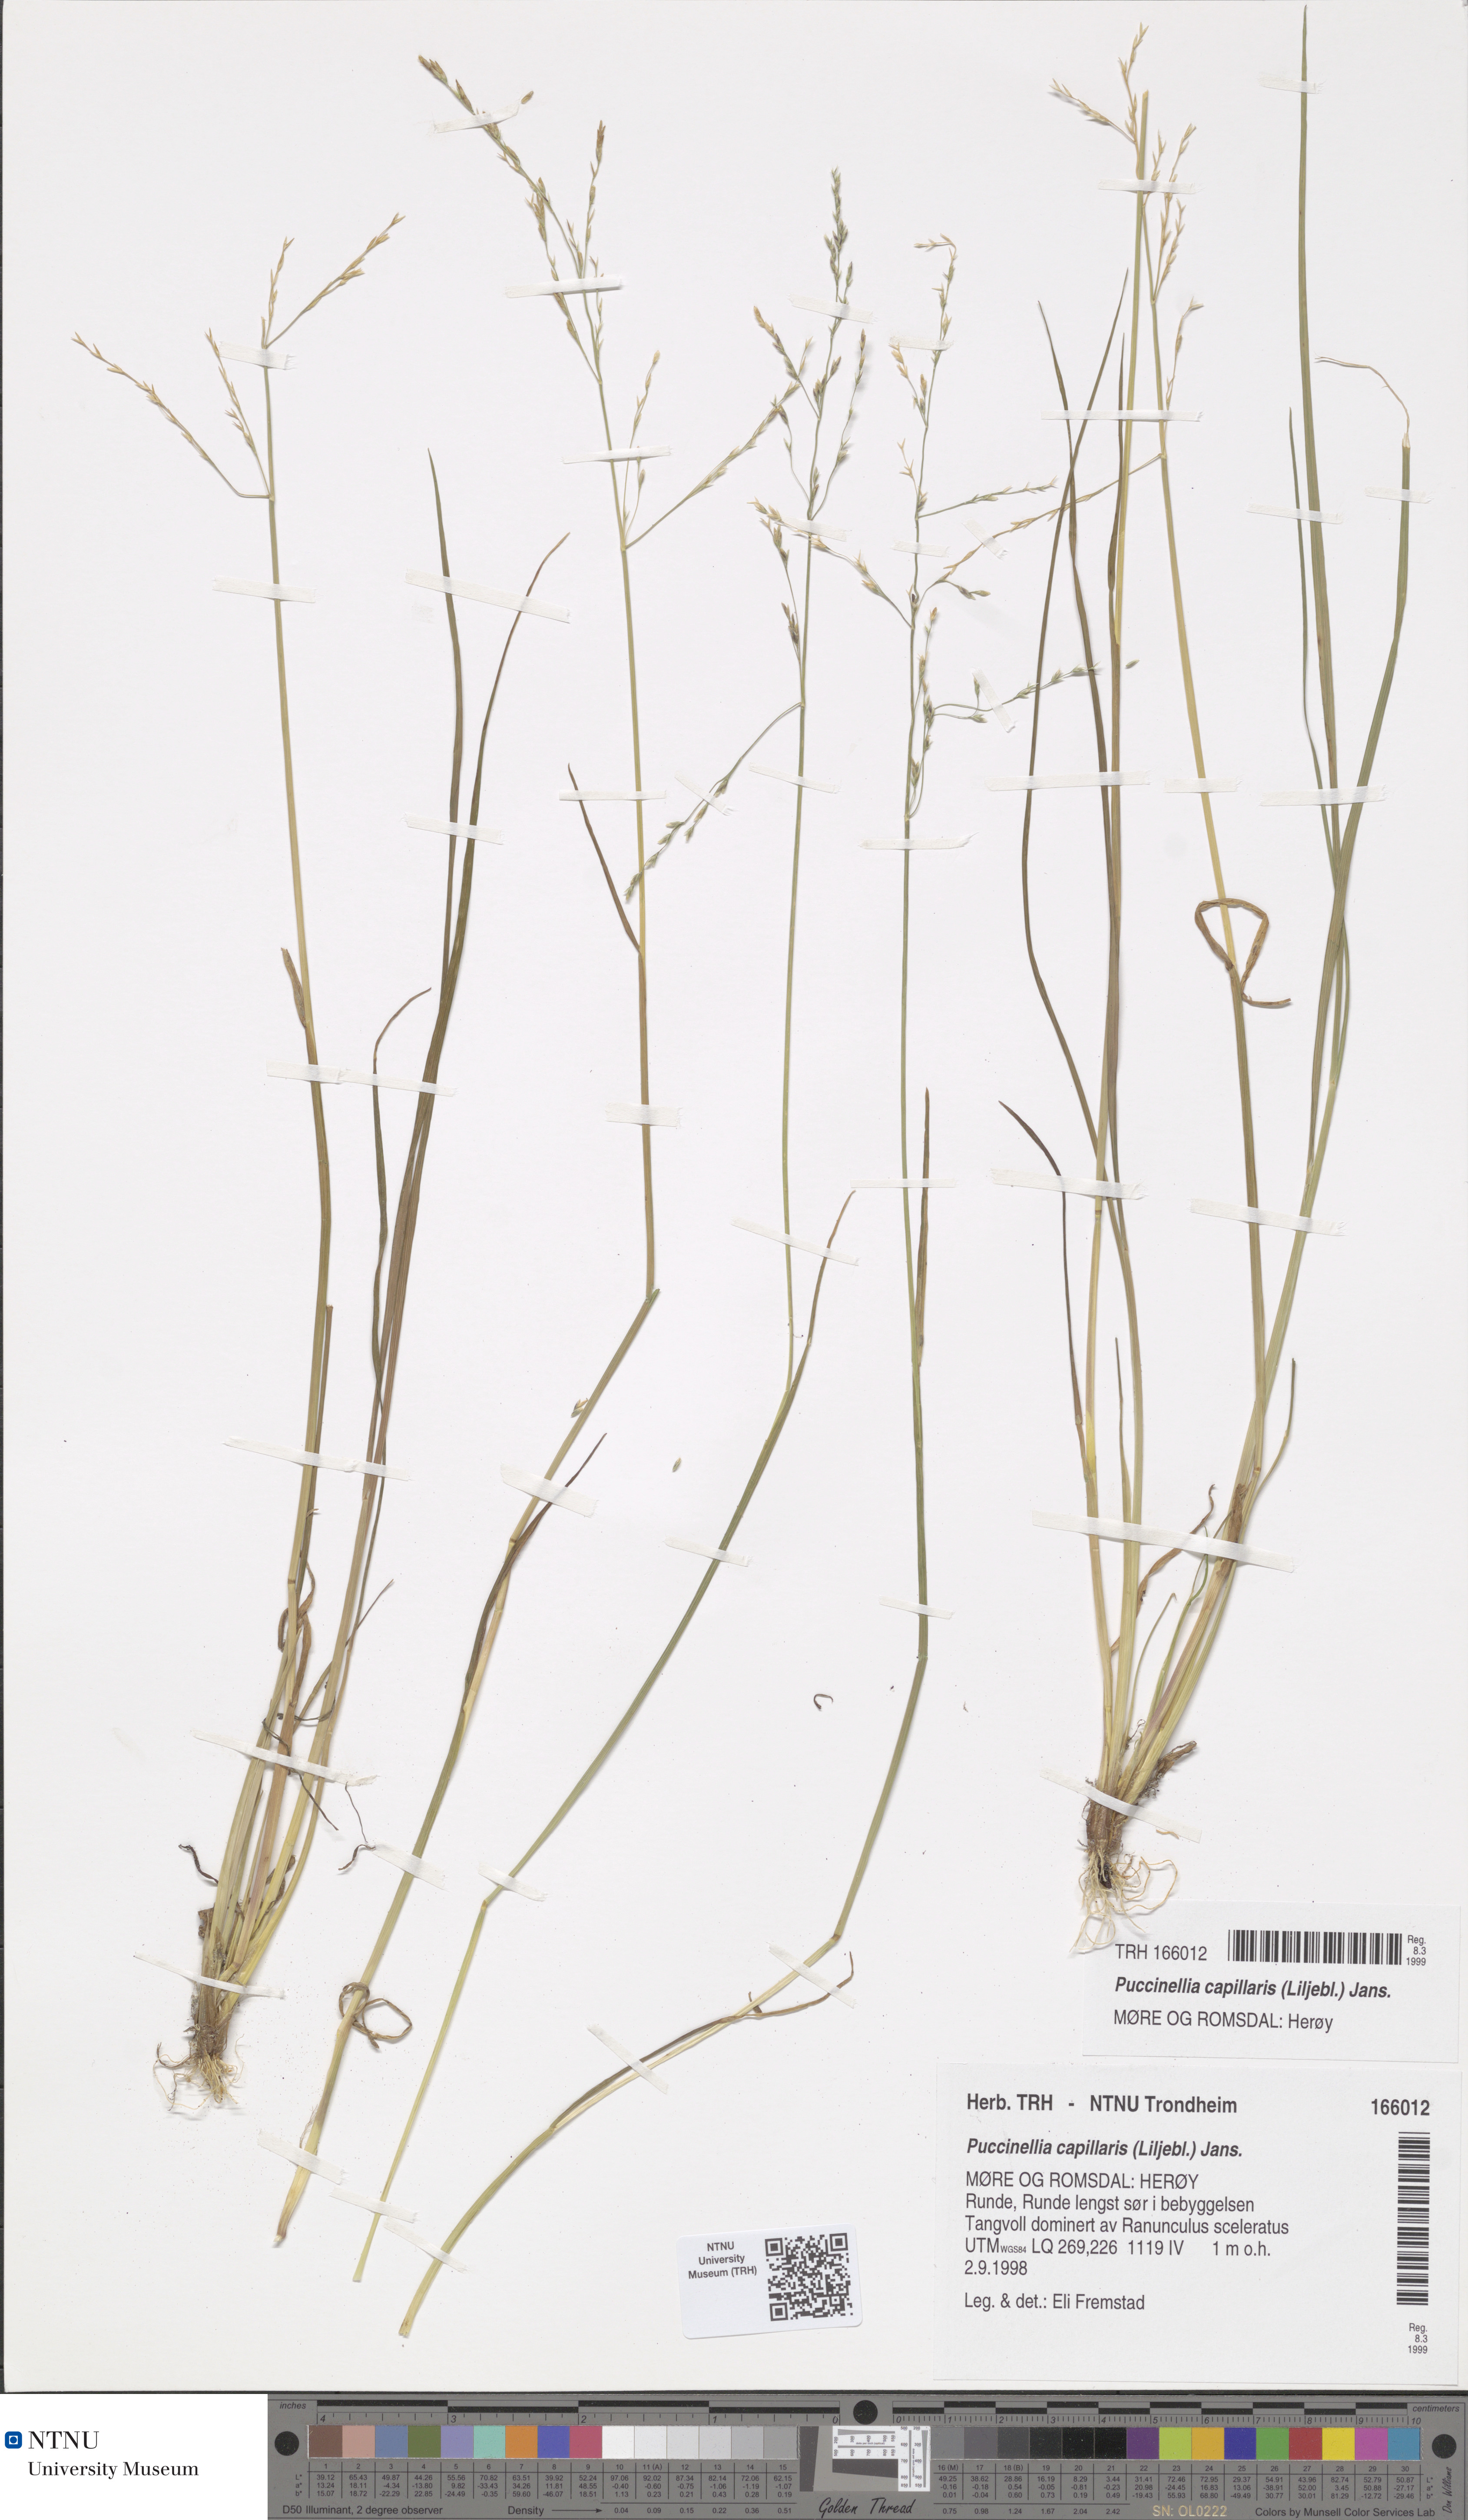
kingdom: Plantae
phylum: Tracheophyta
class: Liliopsida
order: Poales
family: Poaceae
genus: Puccinellia
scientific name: Puccinellia distans
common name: Weeping alkaligrass
